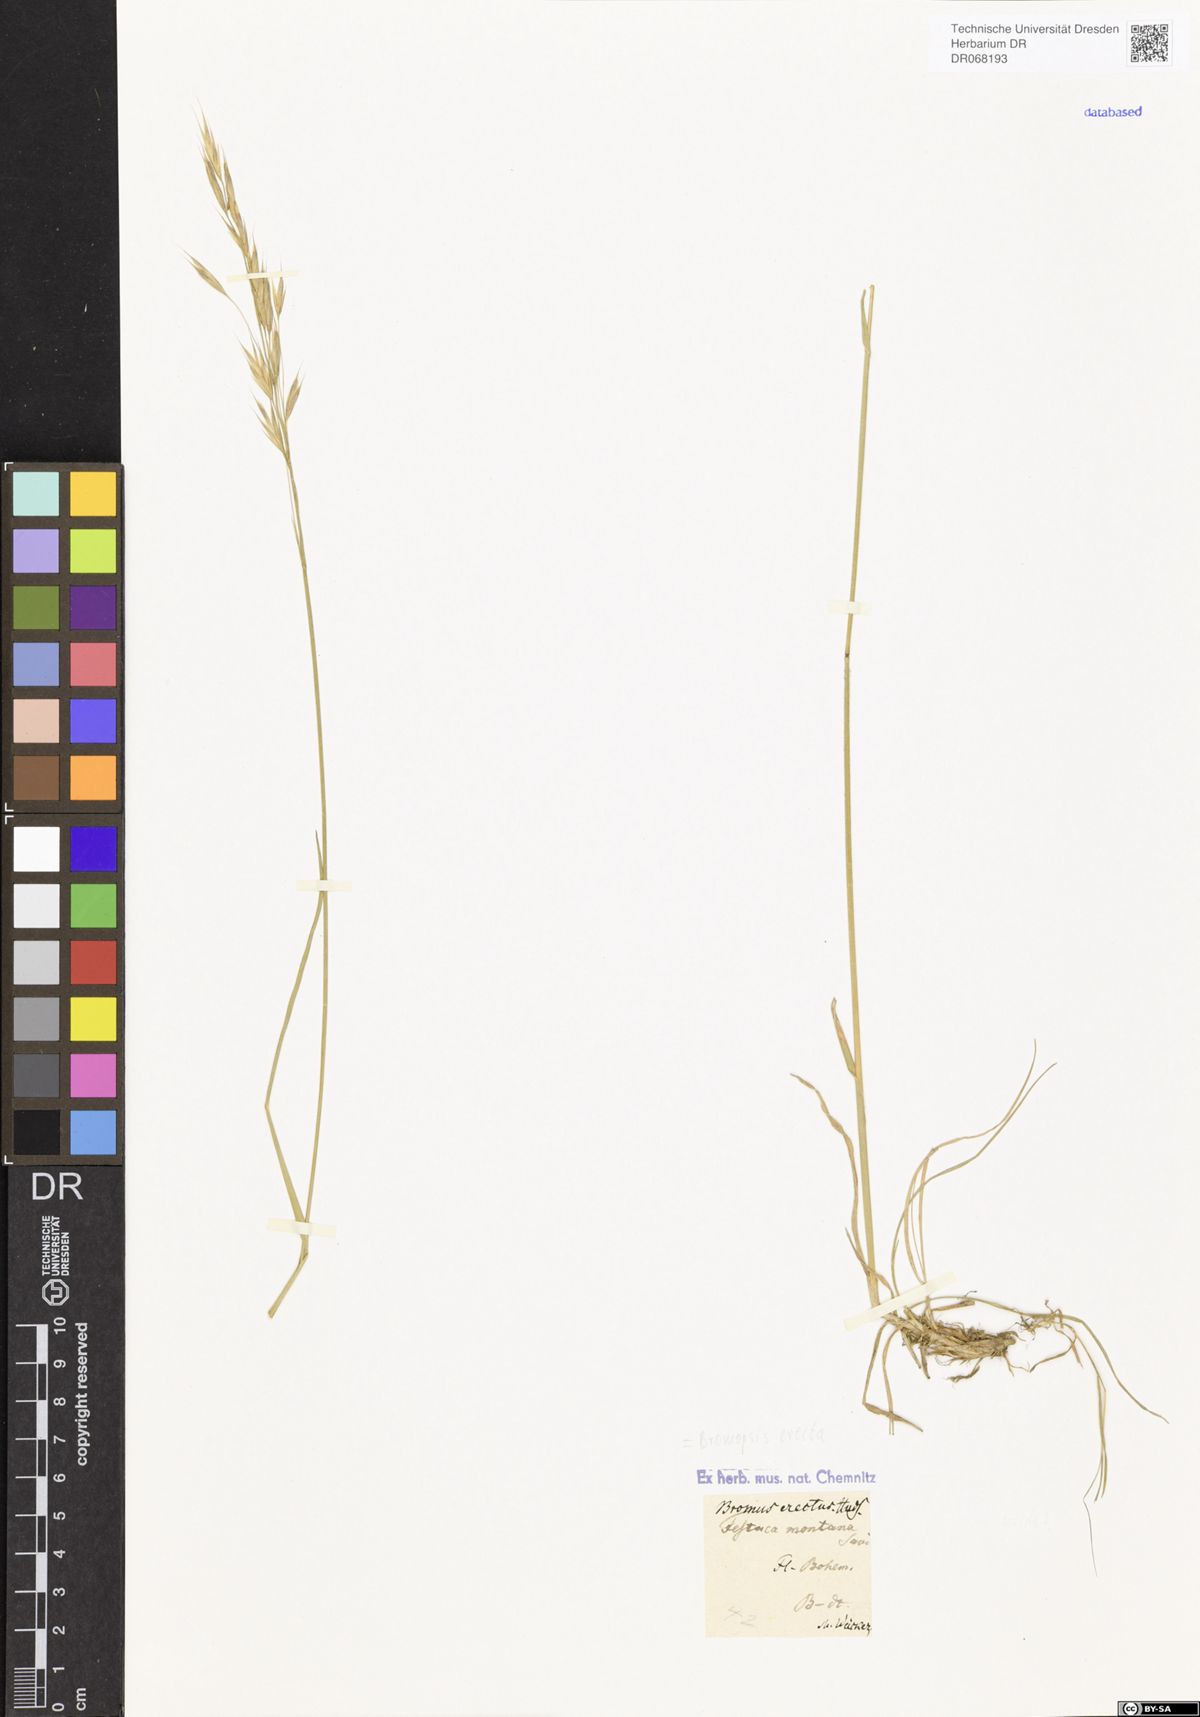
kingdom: Plantae
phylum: Tracheophyta
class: Liliopsida
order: Poales
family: Poaceae
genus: Bromus
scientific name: Bromus erectus
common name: Erect brome
